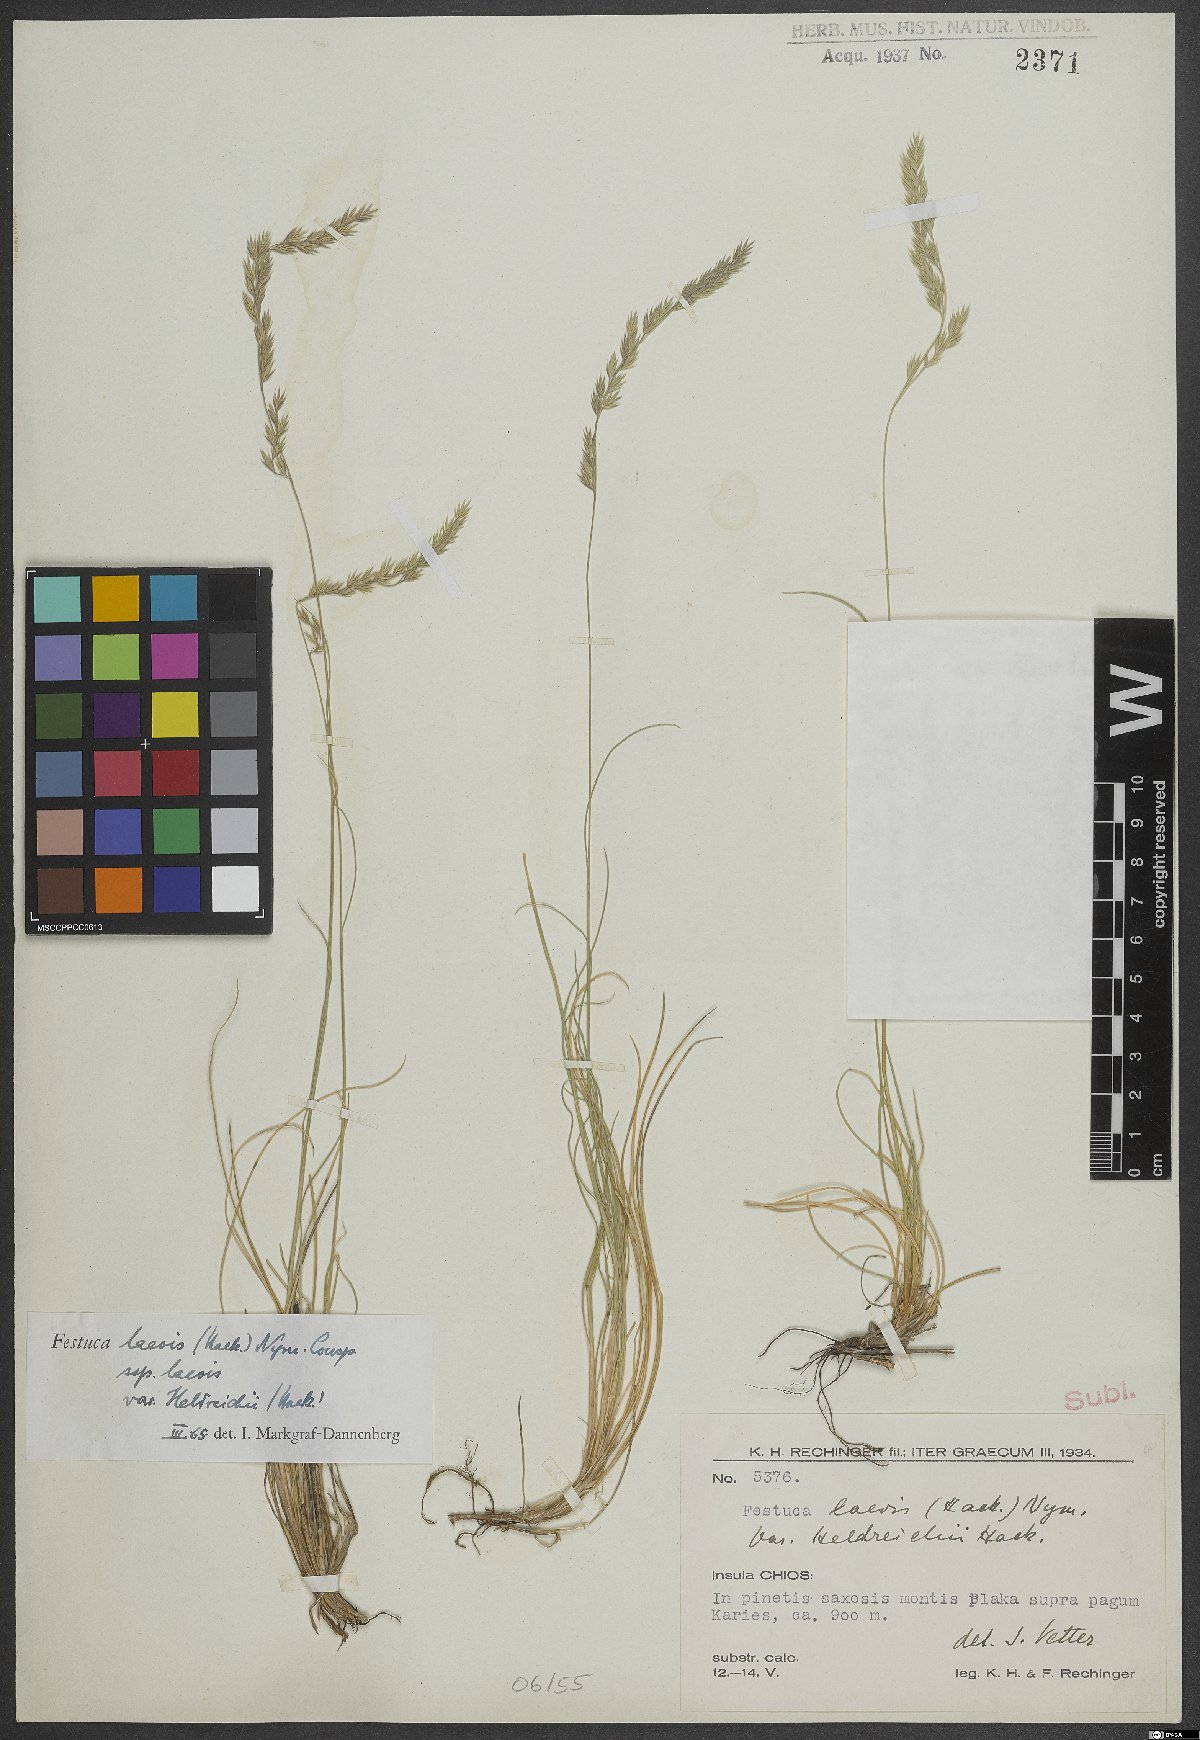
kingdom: Plantae
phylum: Tracheophyta
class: Liliopsida
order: Poales
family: Poaceae
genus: Festuca
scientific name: Festuca laevis
